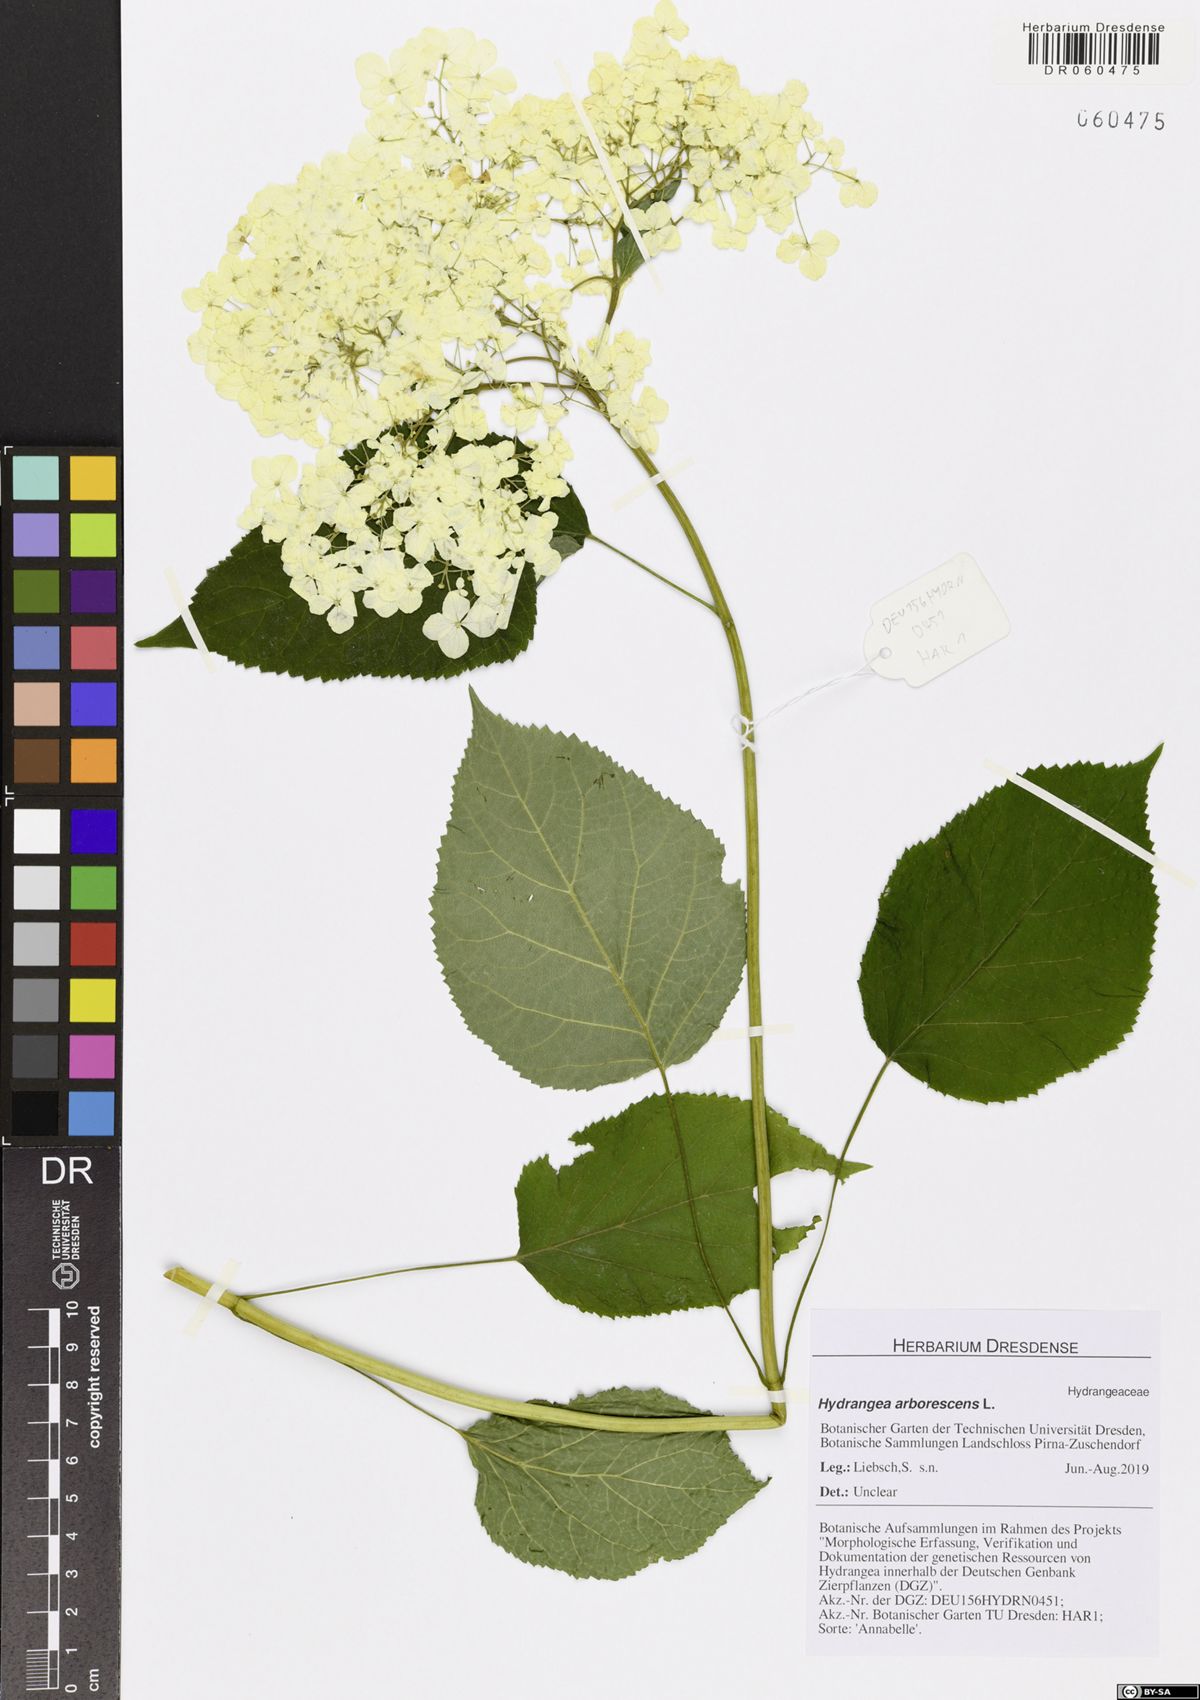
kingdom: Plantae
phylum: Tracheophyta
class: Magnoliopsida
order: Cornales
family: Hydrangeaceae
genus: Hydrangea
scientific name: Hydrangea arborescens
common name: Sevenbark
